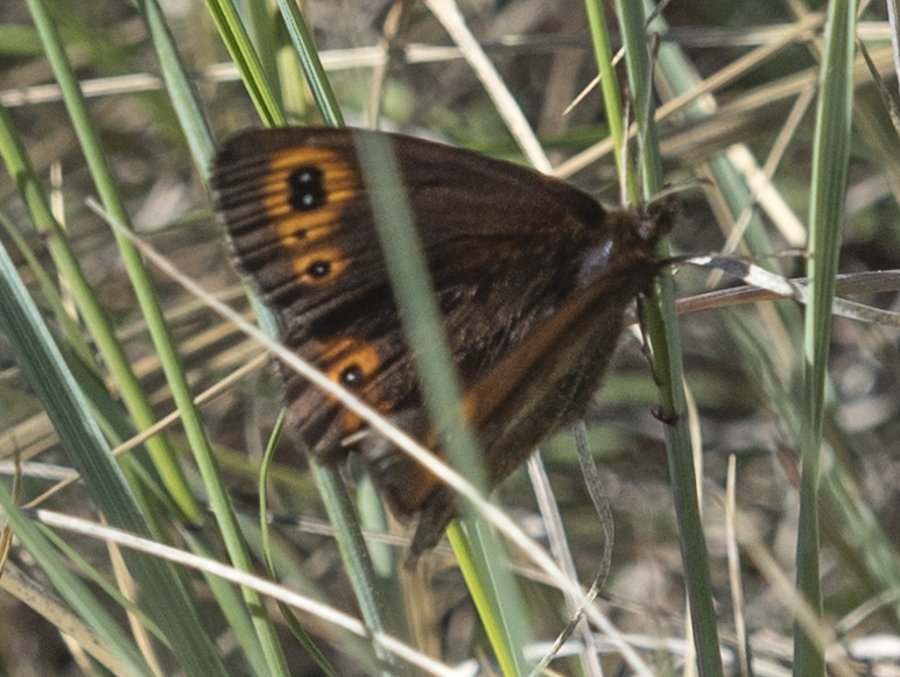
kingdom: Animalia
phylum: Arthropoda
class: Insecta
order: Lepidoptera
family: Nymphalidae
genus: Erebia
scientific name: Erebia epipsodea
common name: Common Alpine
